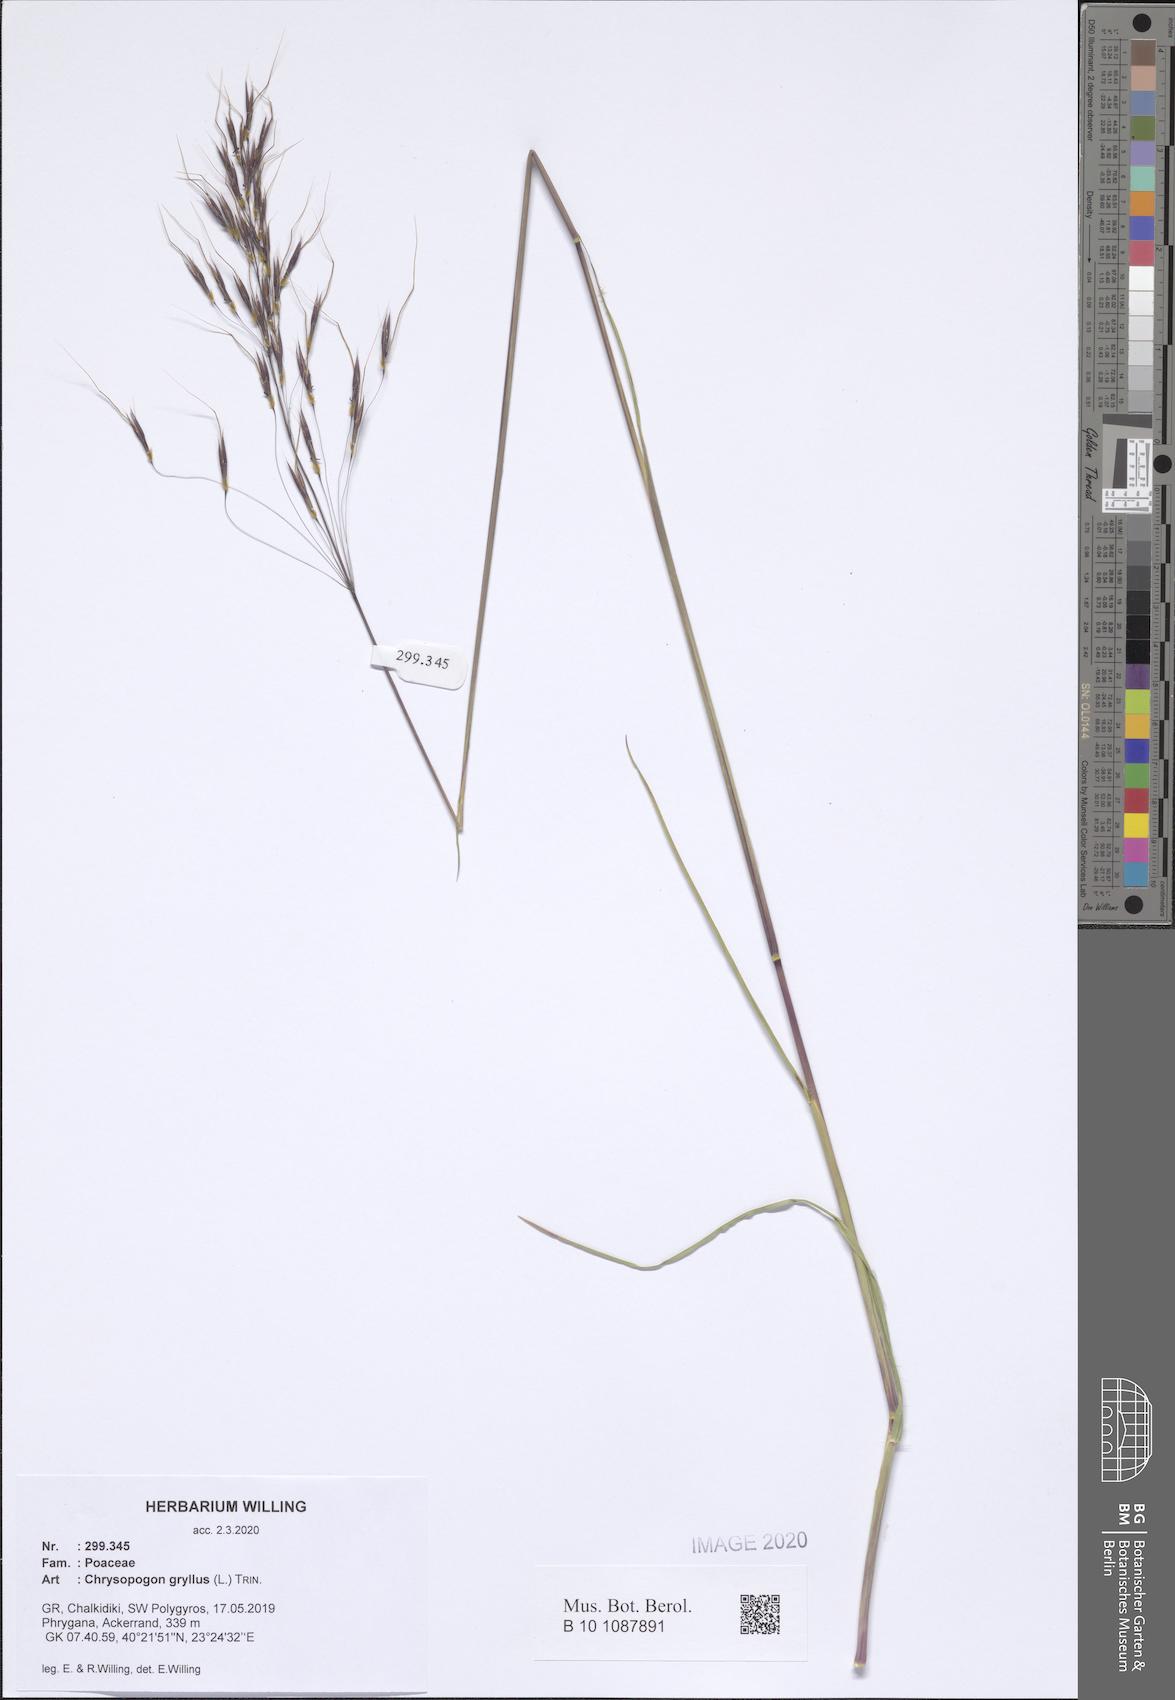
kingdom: Plantae
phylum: Tracheophyta
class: Liliopsida
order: Poales
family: Poaceae
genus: Chrysopogon
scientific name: Chrysopogon gryllus
